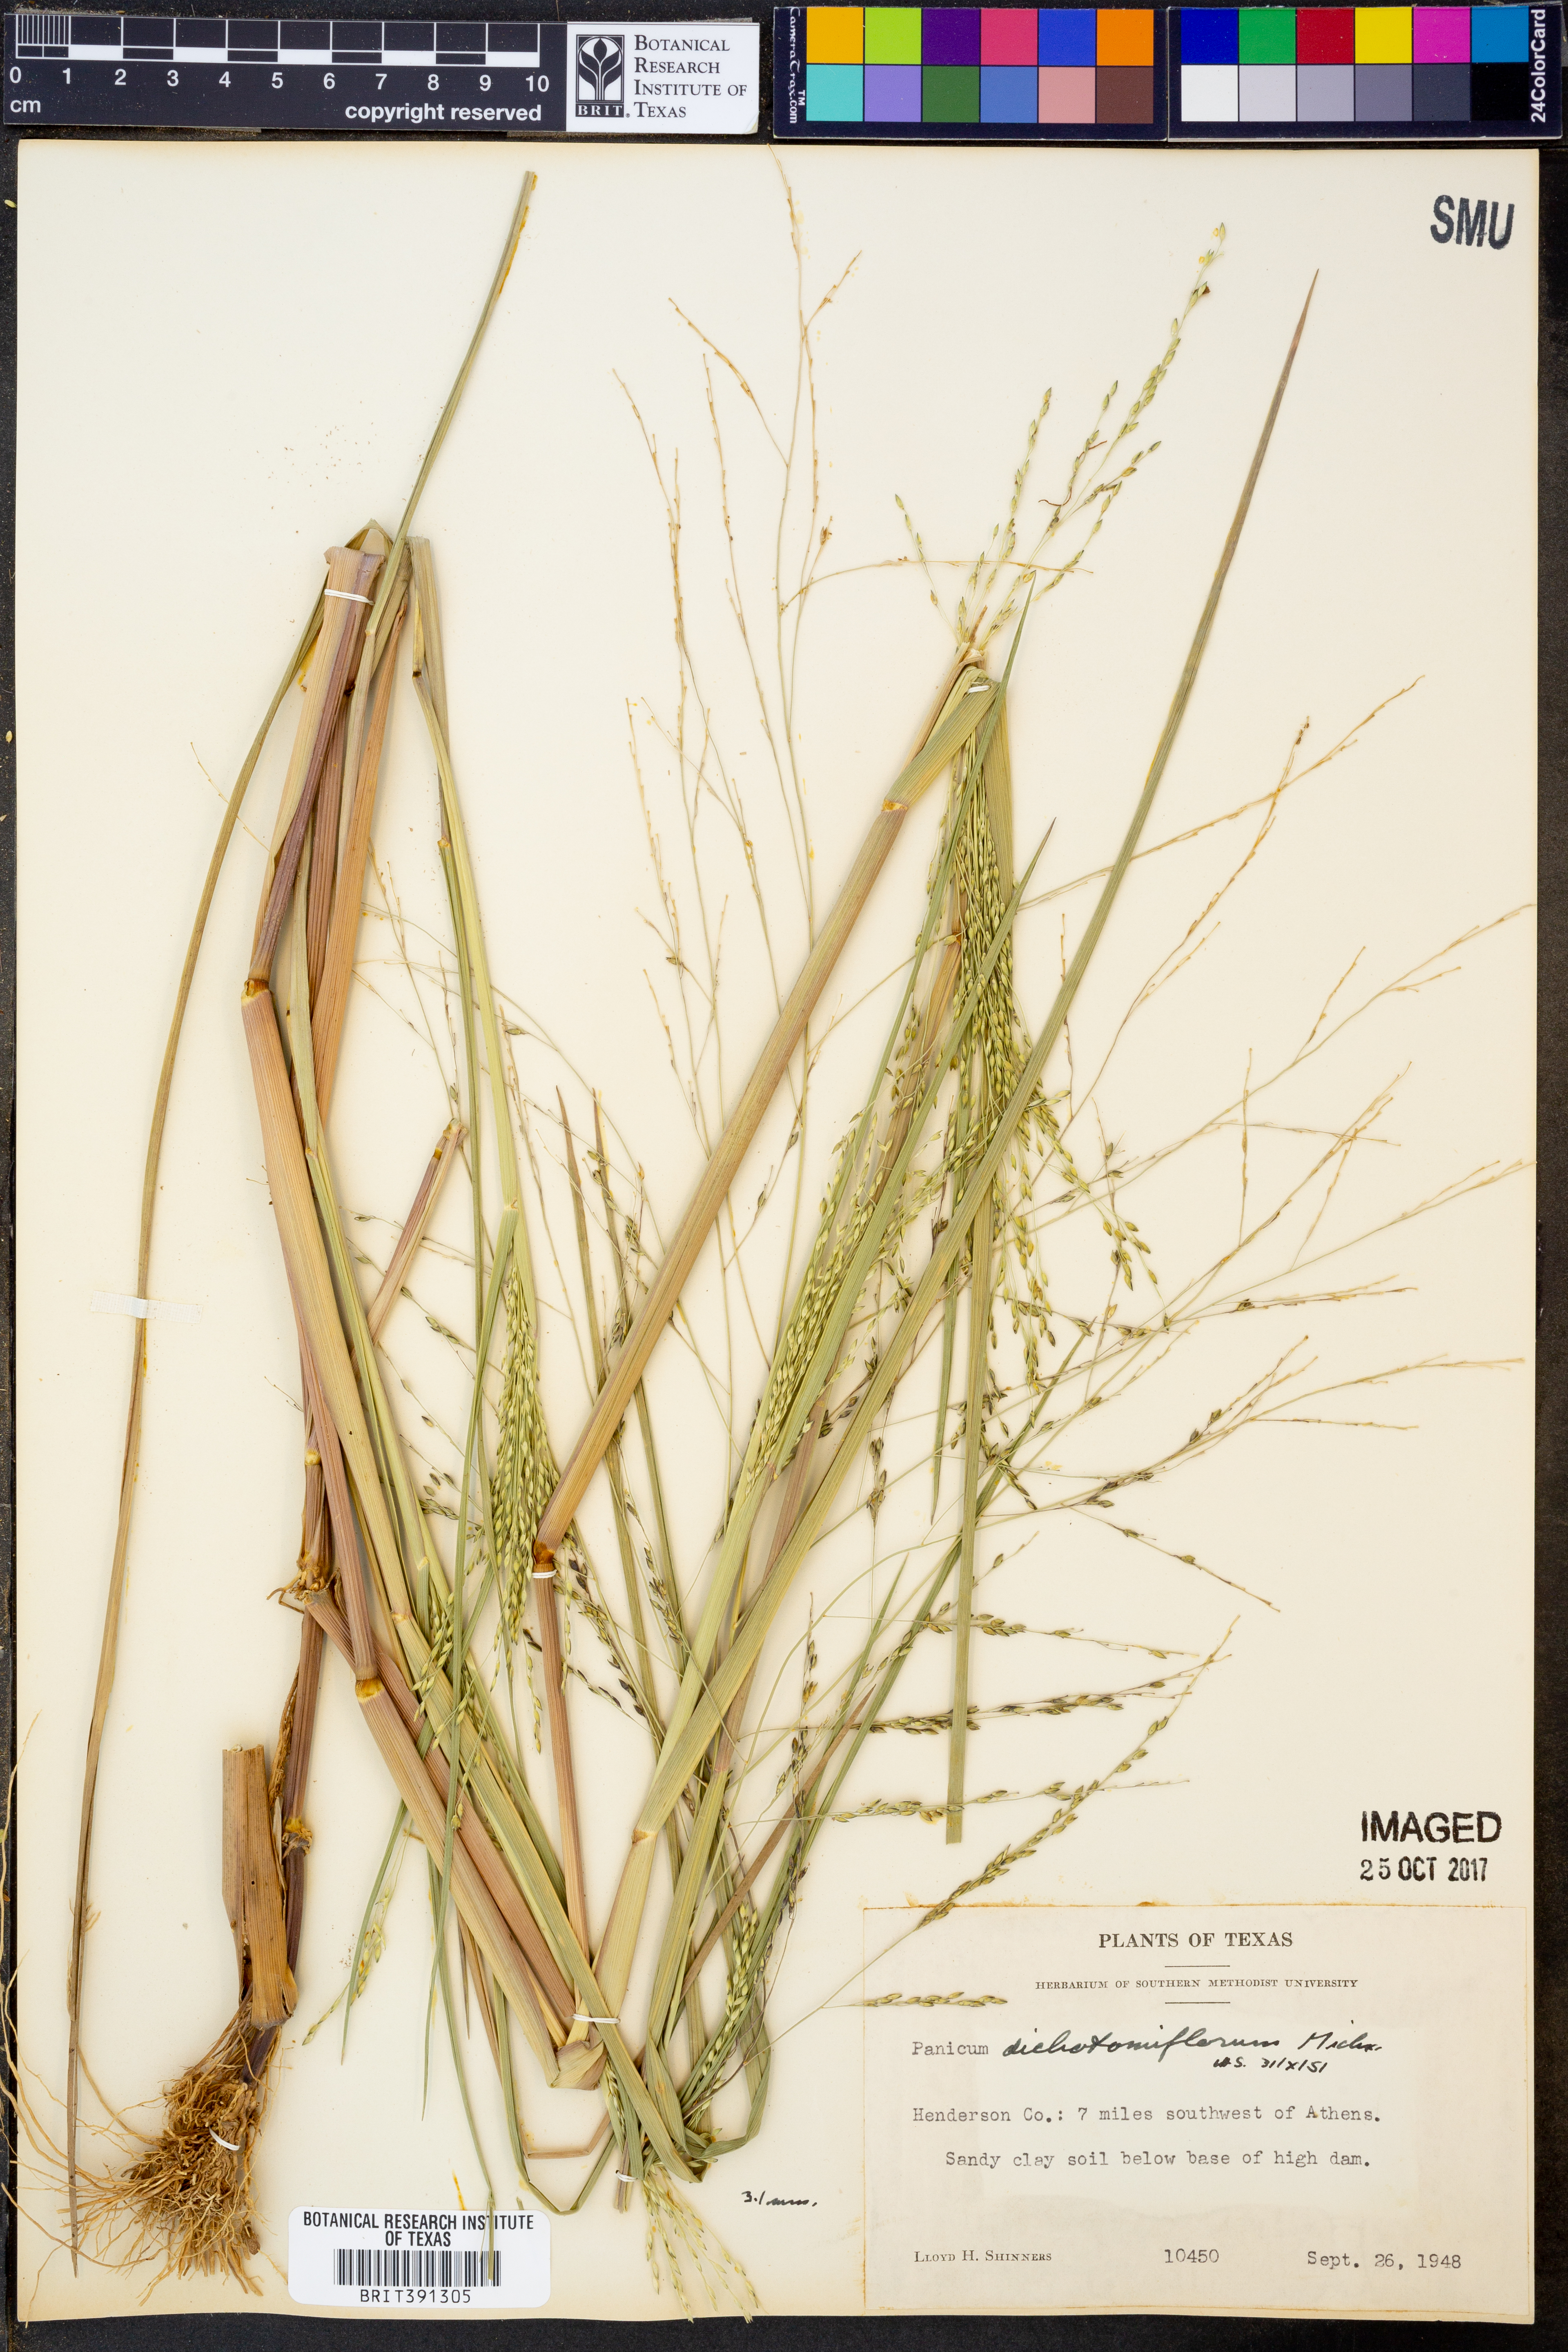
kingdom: Plantae
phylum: Tracheophyta
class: Liliopsida
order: Poales
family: Poaceae
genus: Panicum
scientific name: Panicum dichotomiflorum
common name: Autumn millet
